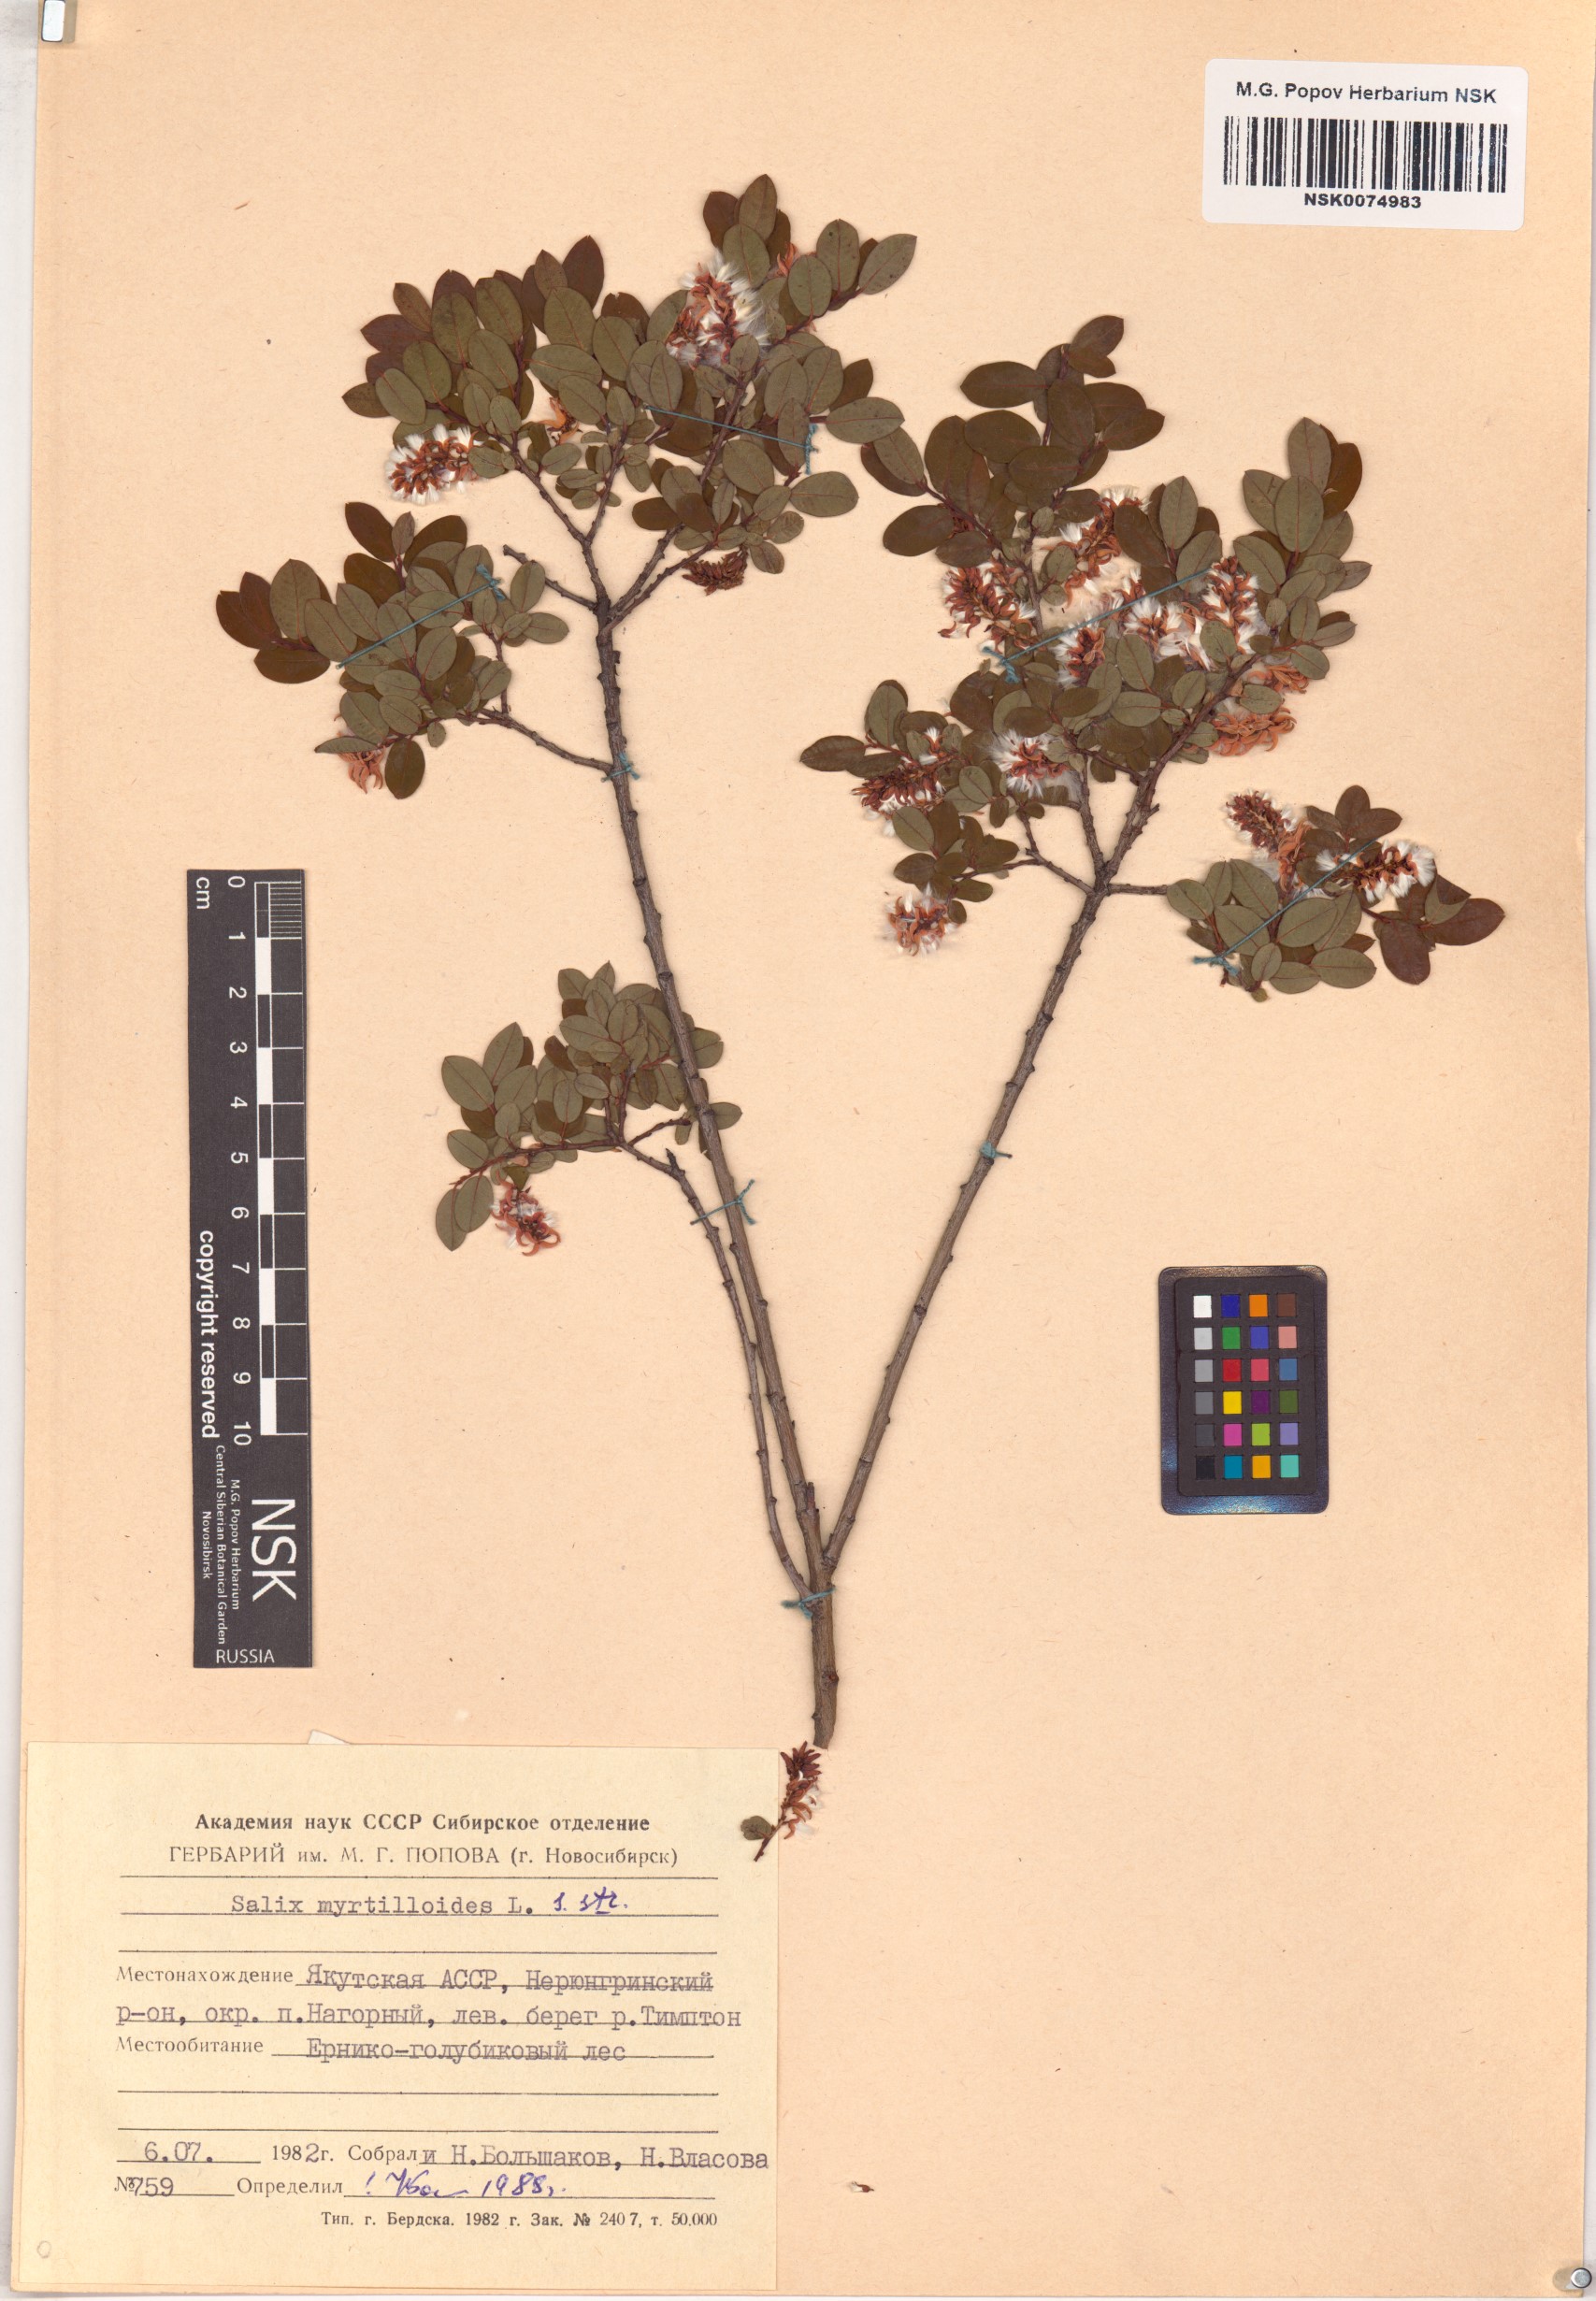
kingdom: Plantae
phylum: Tracheophyta
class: Magnoliopsida
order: Malpighiales
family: Salicaceae
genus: Salix
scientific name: Salix myrtilloides
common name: Myrtle-leaved willow
